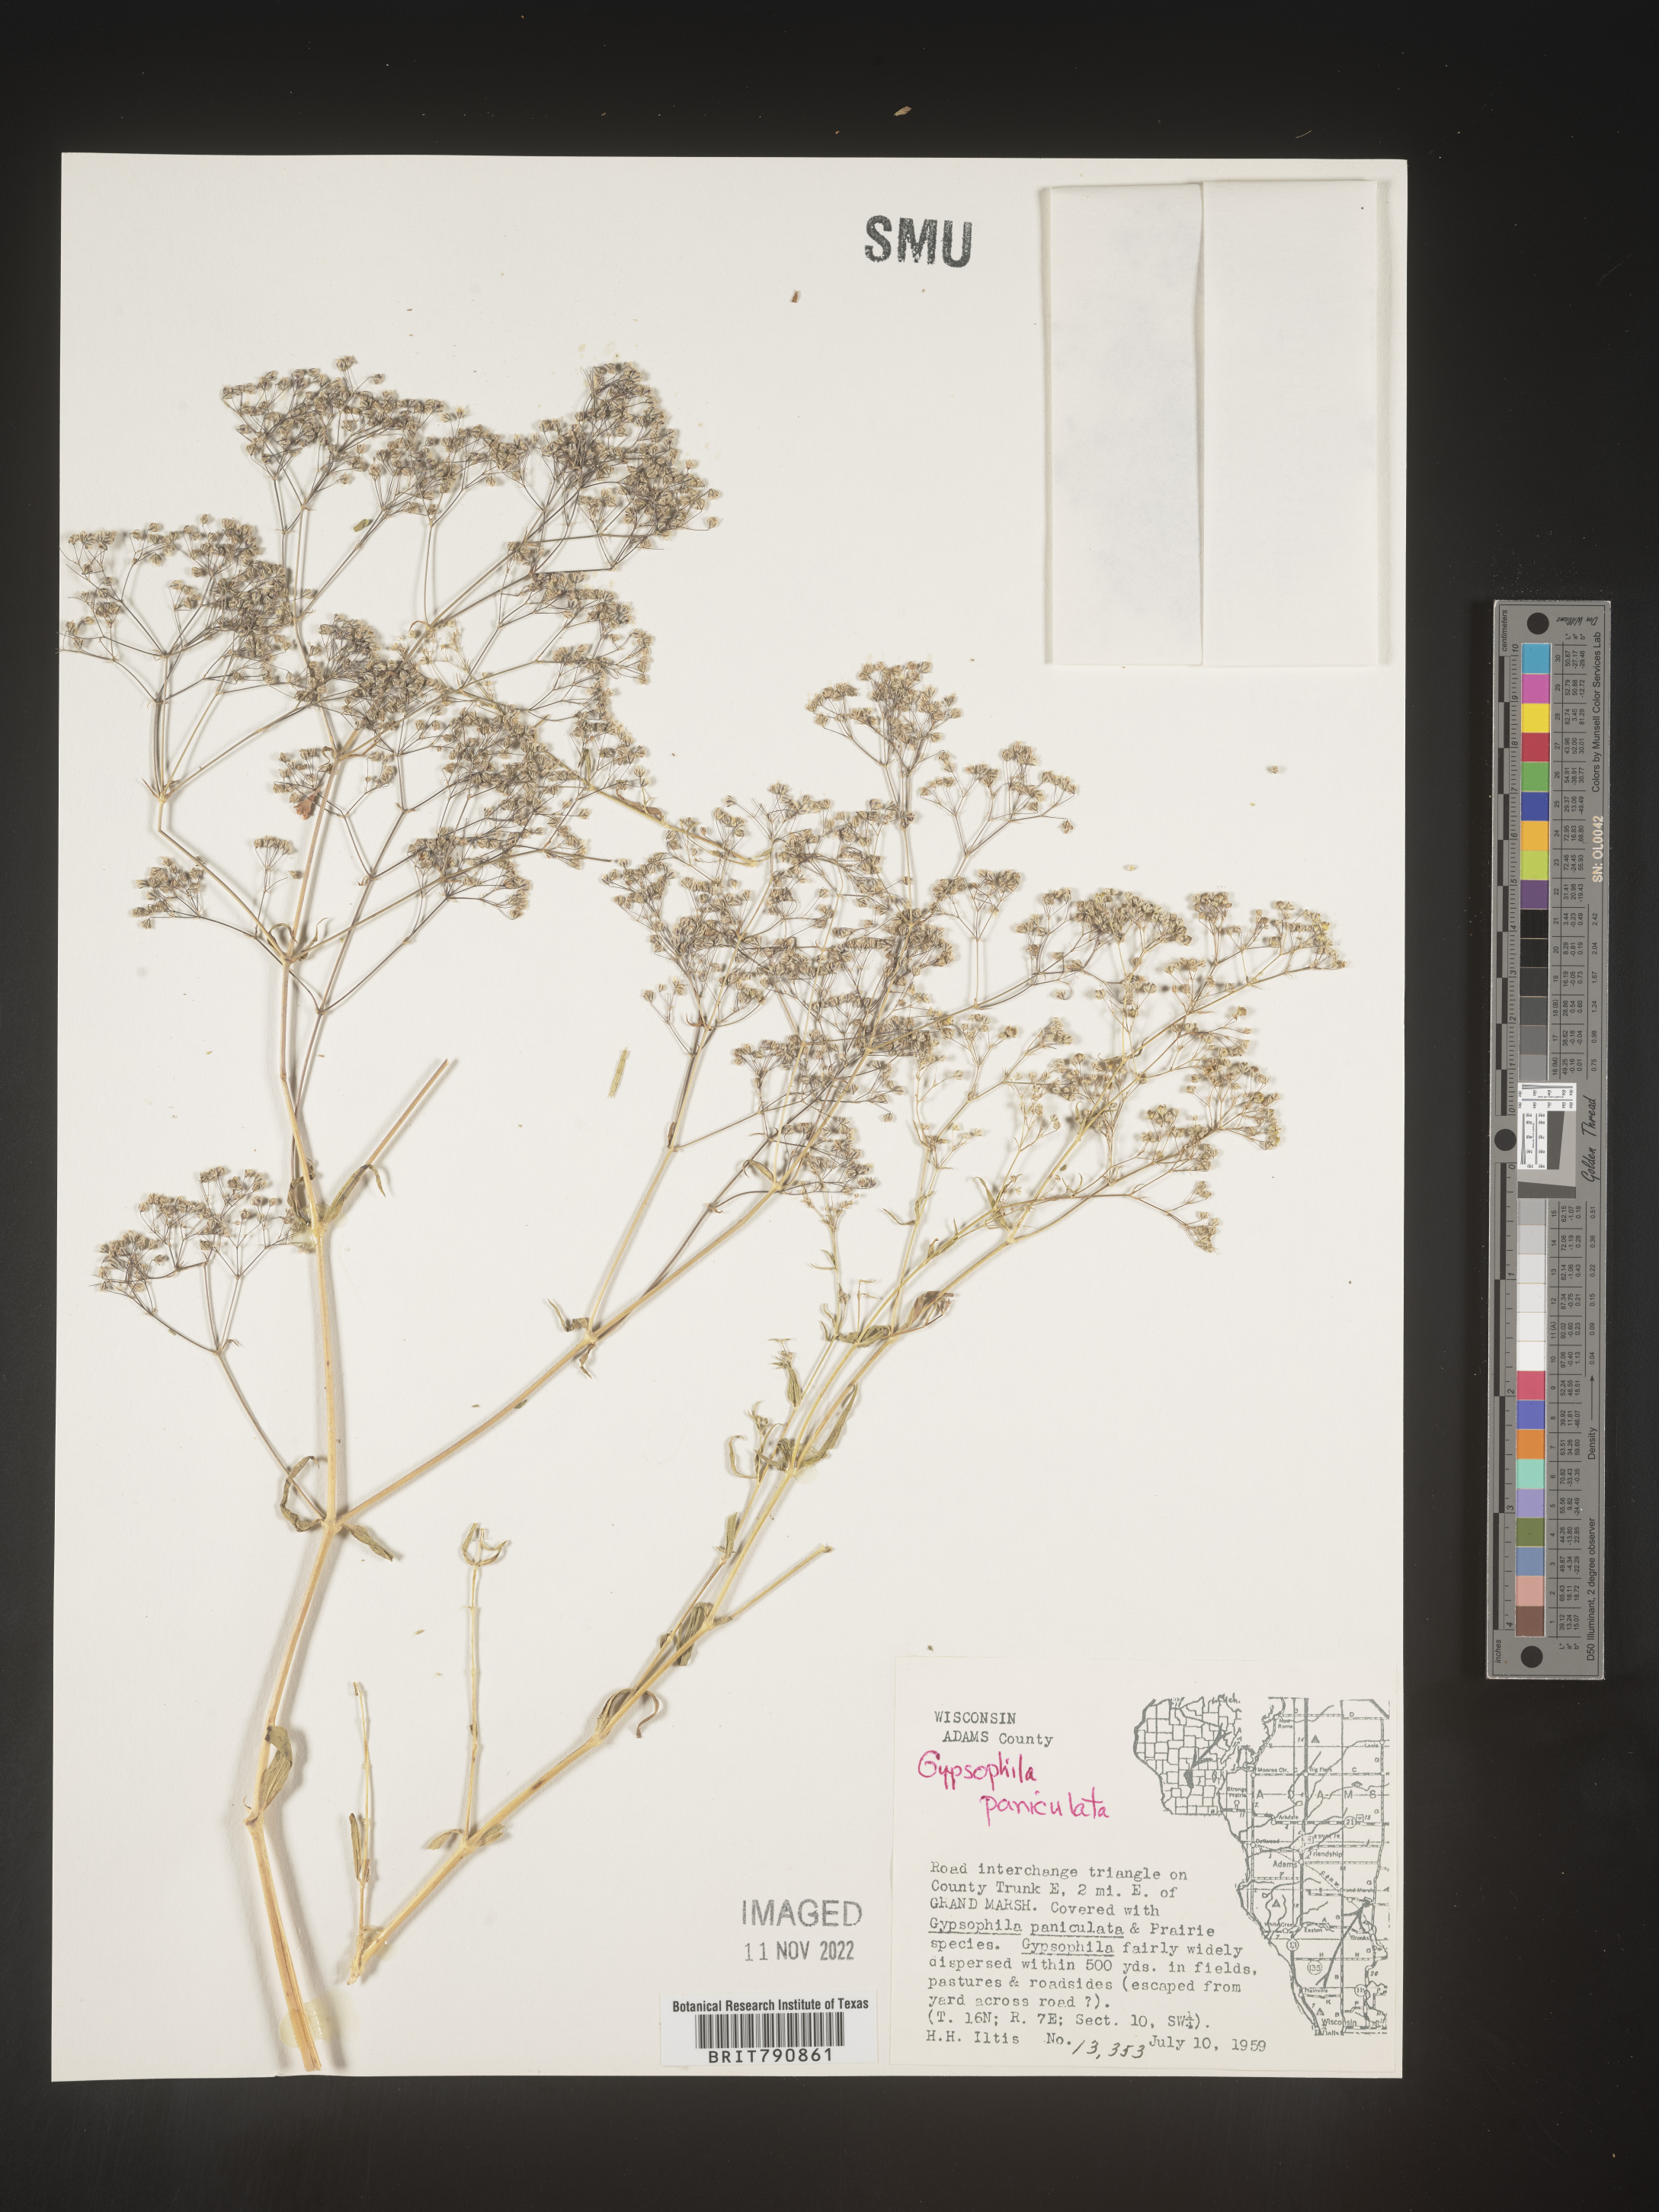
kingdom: Plantae
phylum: Tracheophyta
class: Magnoliopsida
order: Caryophyllales
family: Caryophyllaceae
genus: Gypsophila
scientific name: Gypsophila
